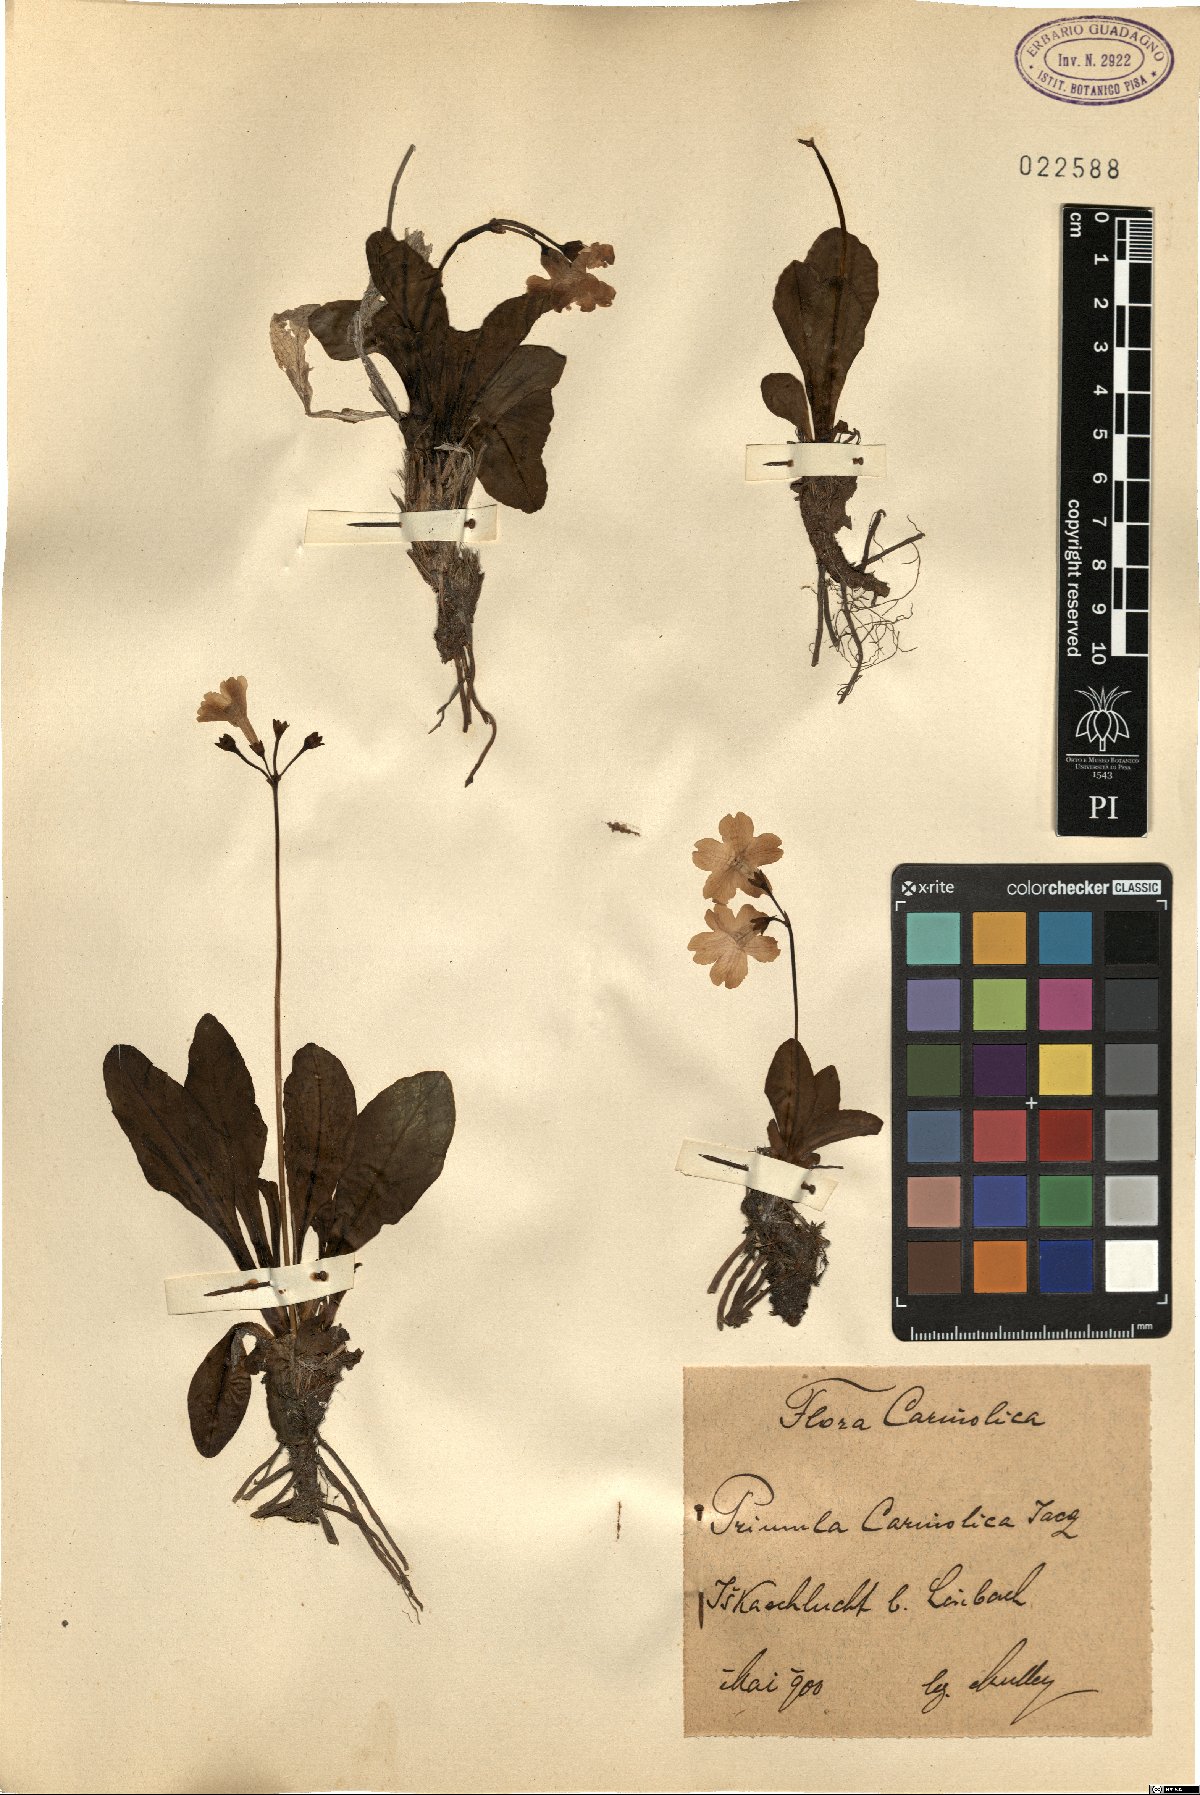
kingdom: Plantae
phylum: Tracheophyta
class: Magnoliopsida
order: Ericales
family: Primulaceae
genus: Primula
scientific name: Primula carniolica
